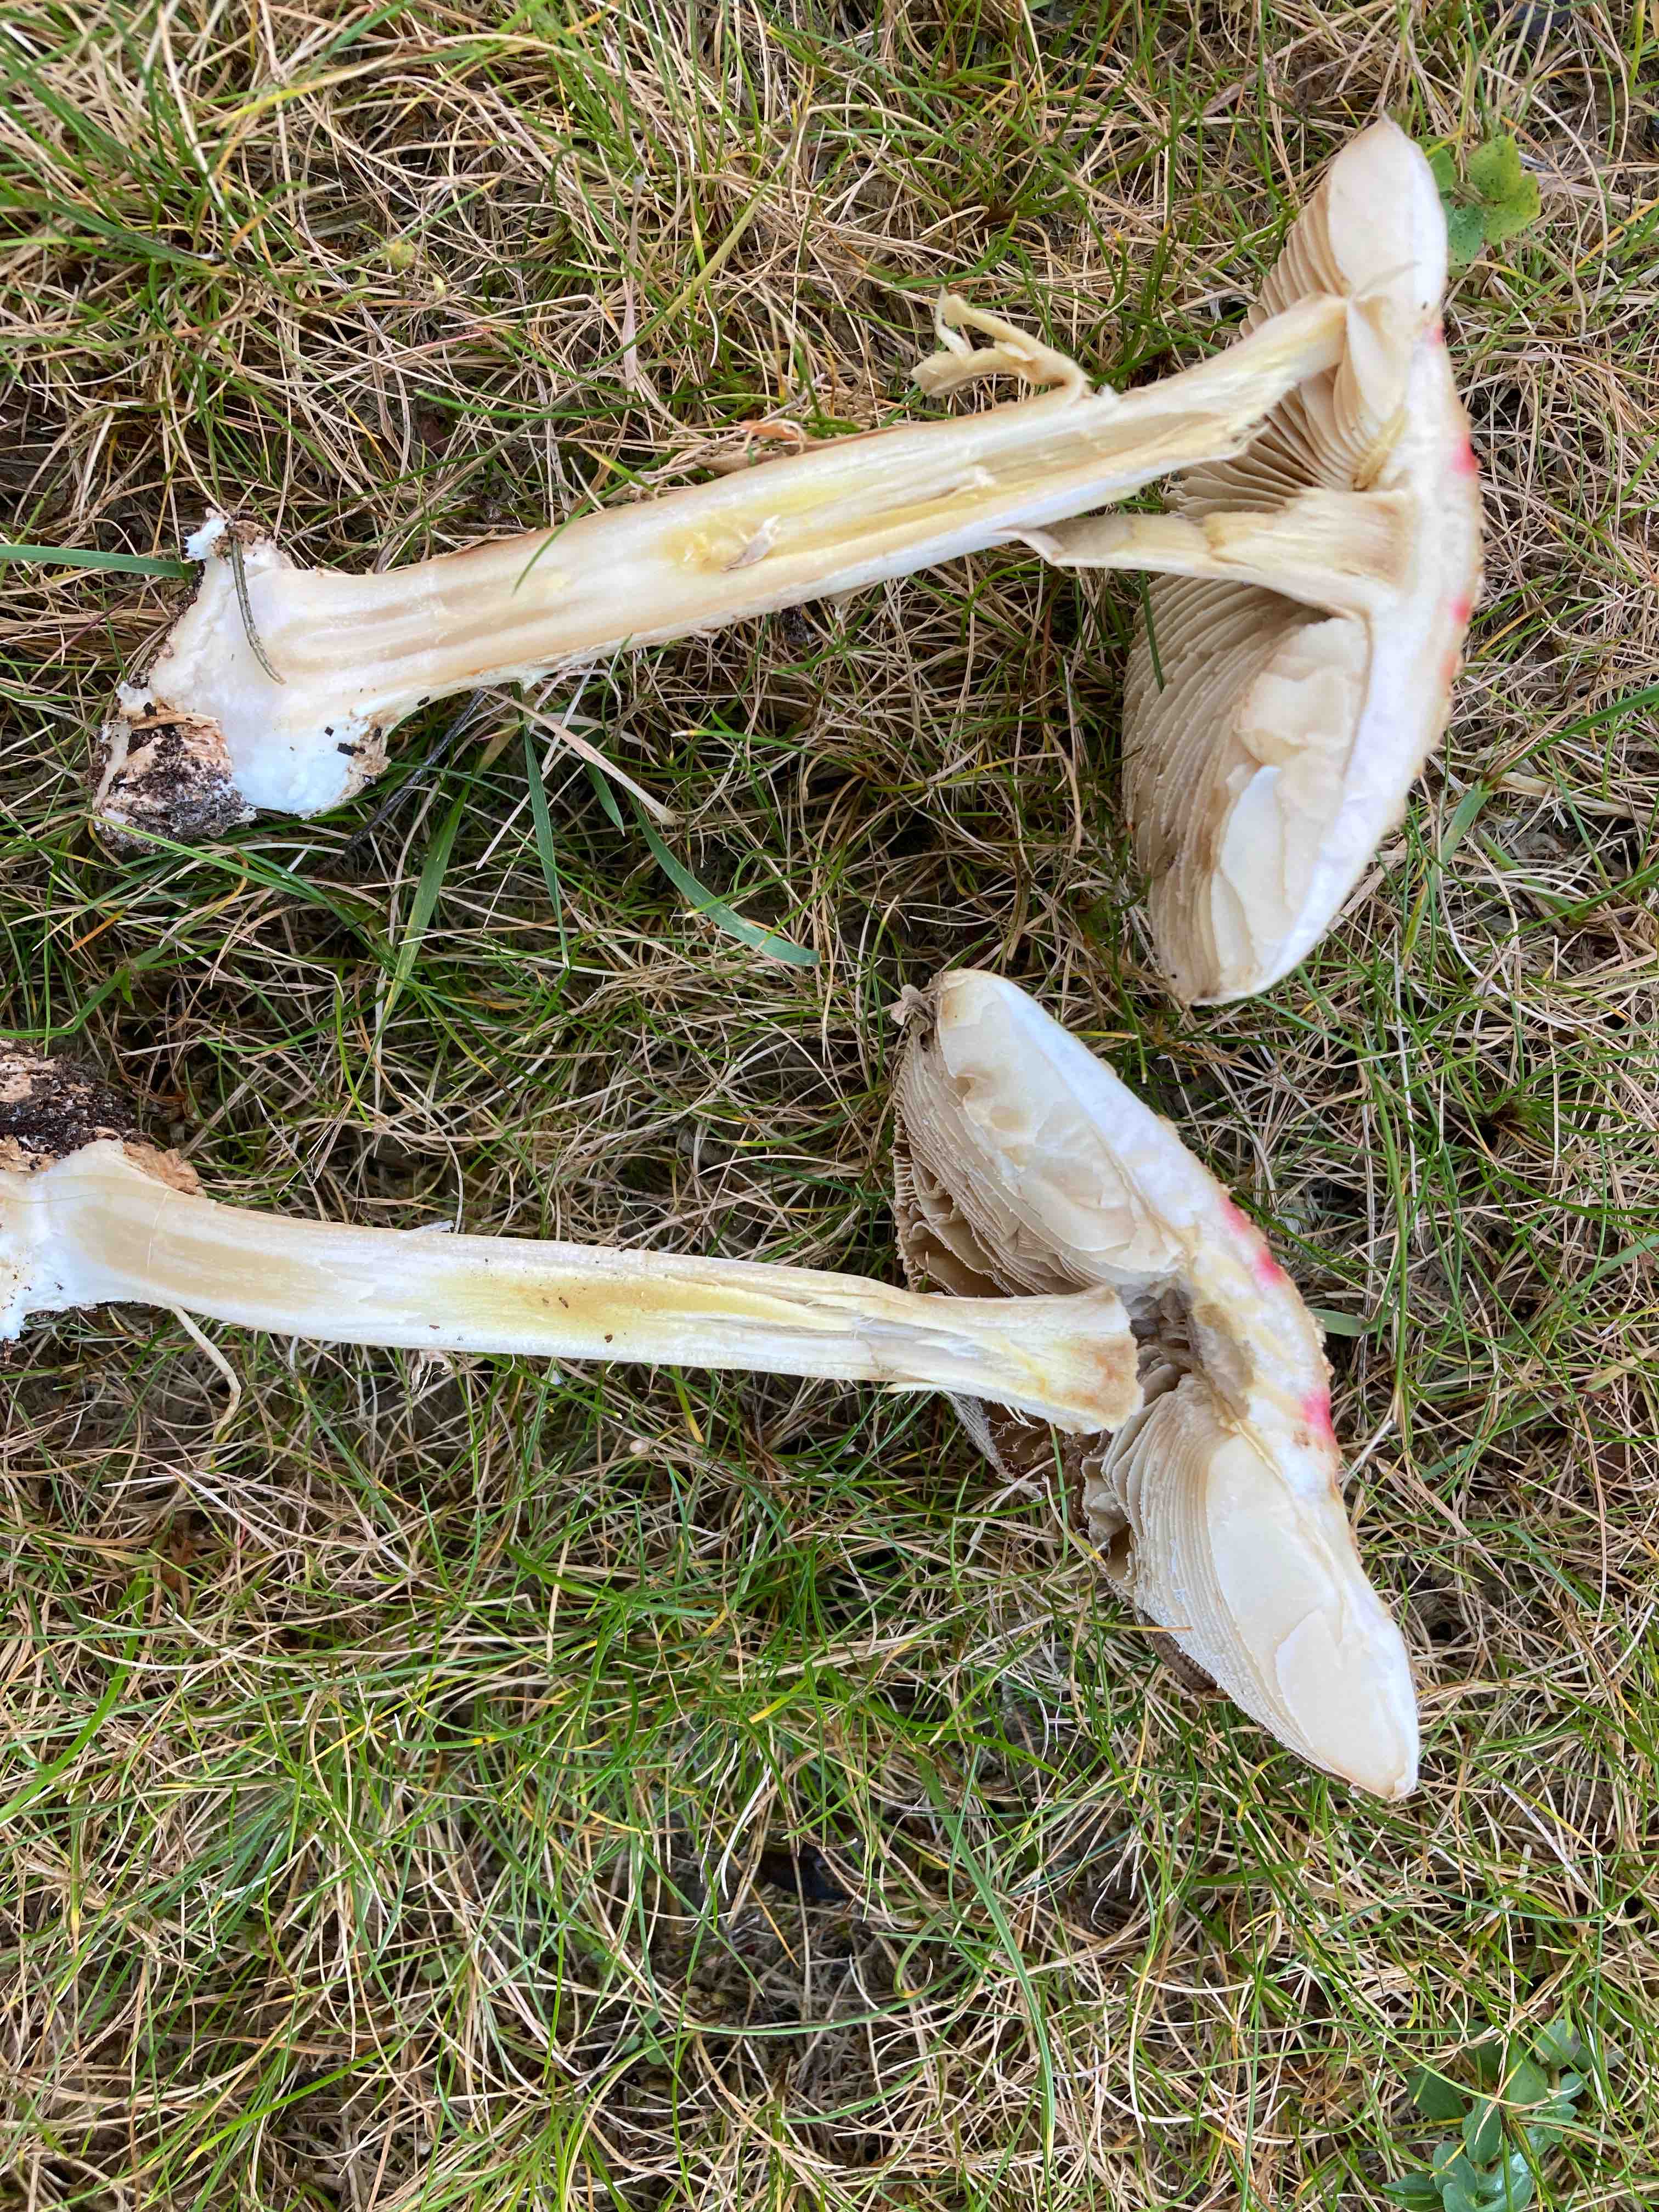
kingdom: Fungi
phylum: Basidiomycota
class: Agaricomycetes
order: Agaricales
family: Amanitaceae
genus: Amanita
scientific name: Amanita citrina
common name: kugleknoldet fluesvamp
